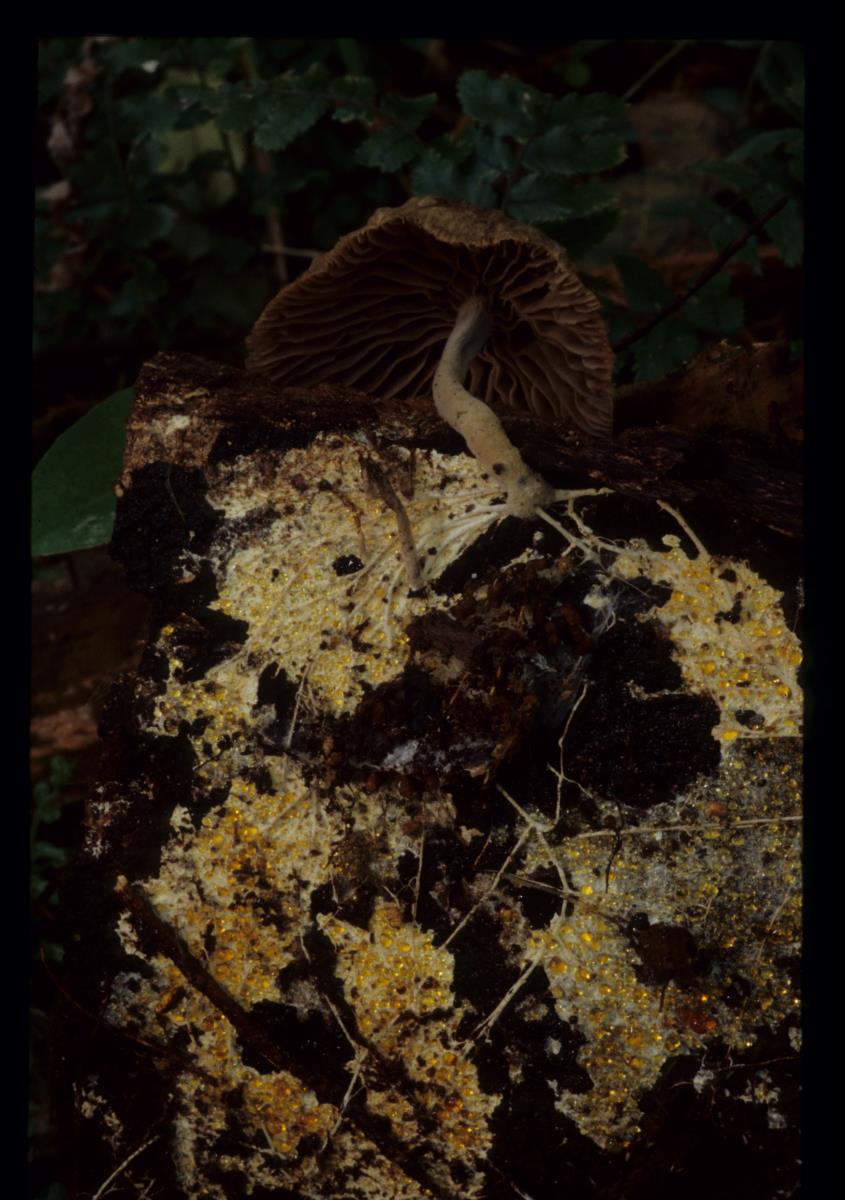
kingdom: Fungi
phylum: Basidiomycota
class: Agaricomycetes
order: Agaricales
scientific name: Agaricales
